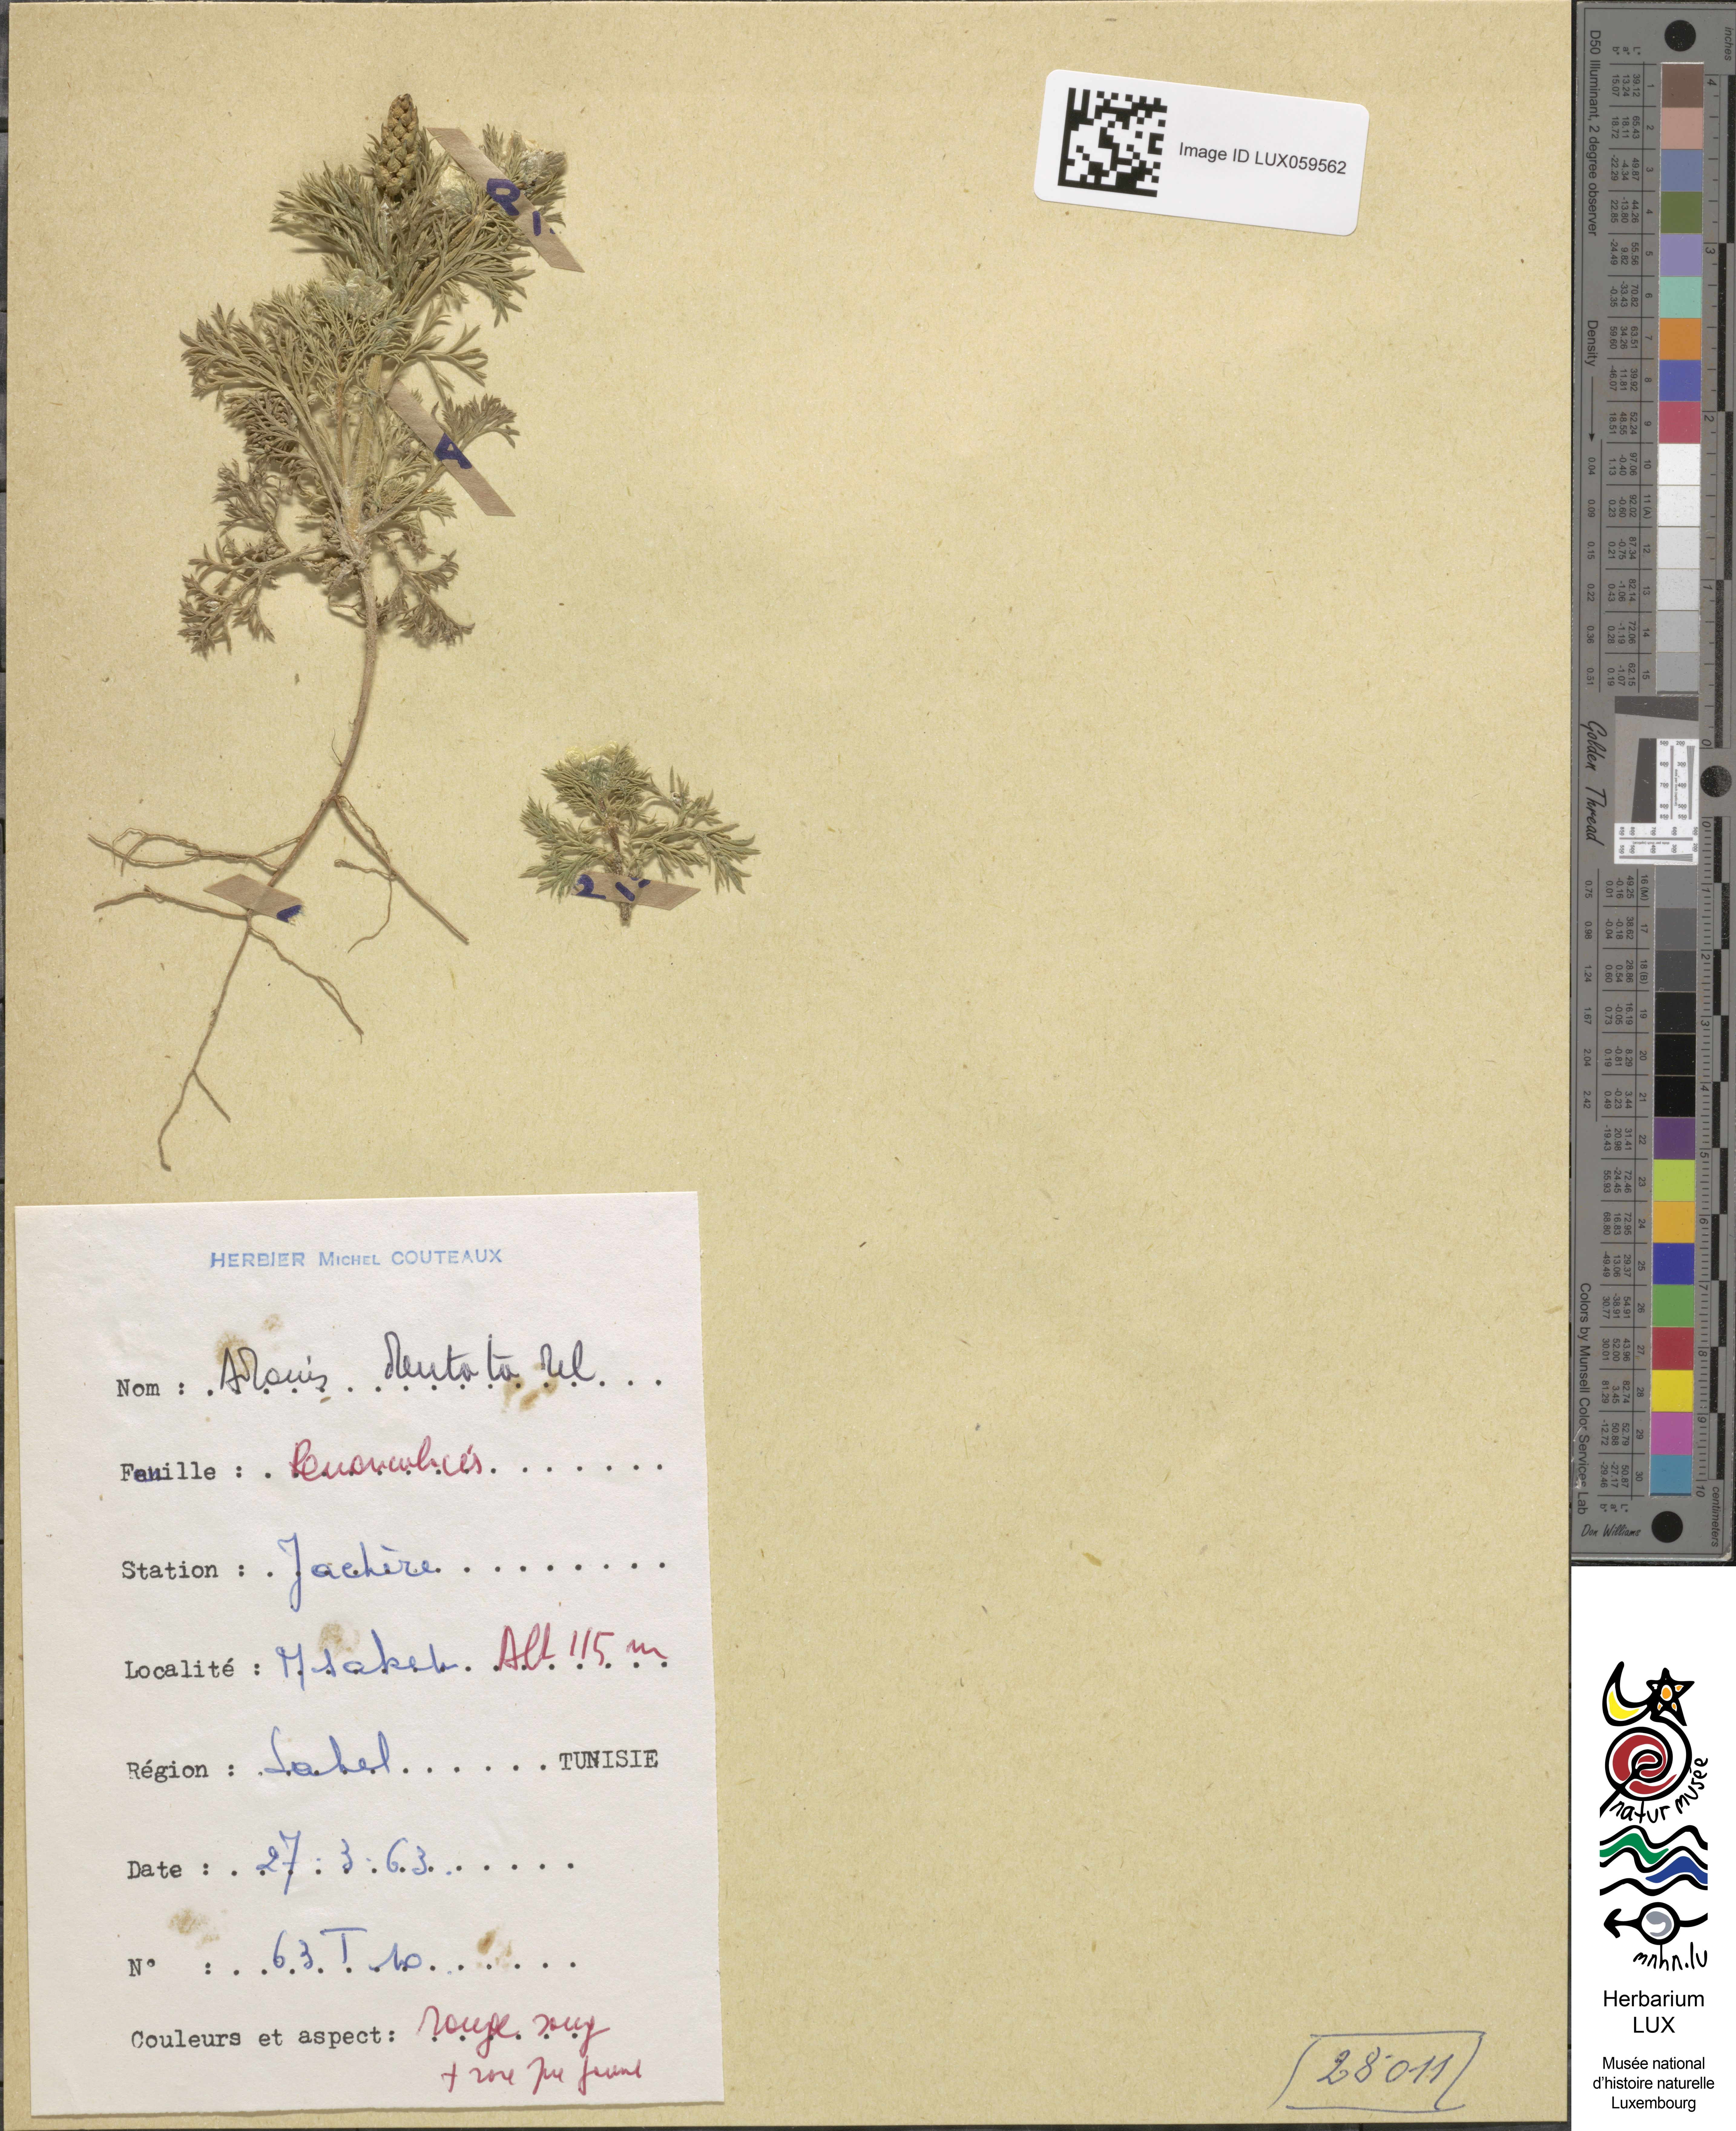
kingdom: Plantae
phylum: Tracheophyta
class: Magnoliopsida
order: Ranunculales
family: Ranunculaceae
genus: Adonis
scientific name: Adonis dentata
